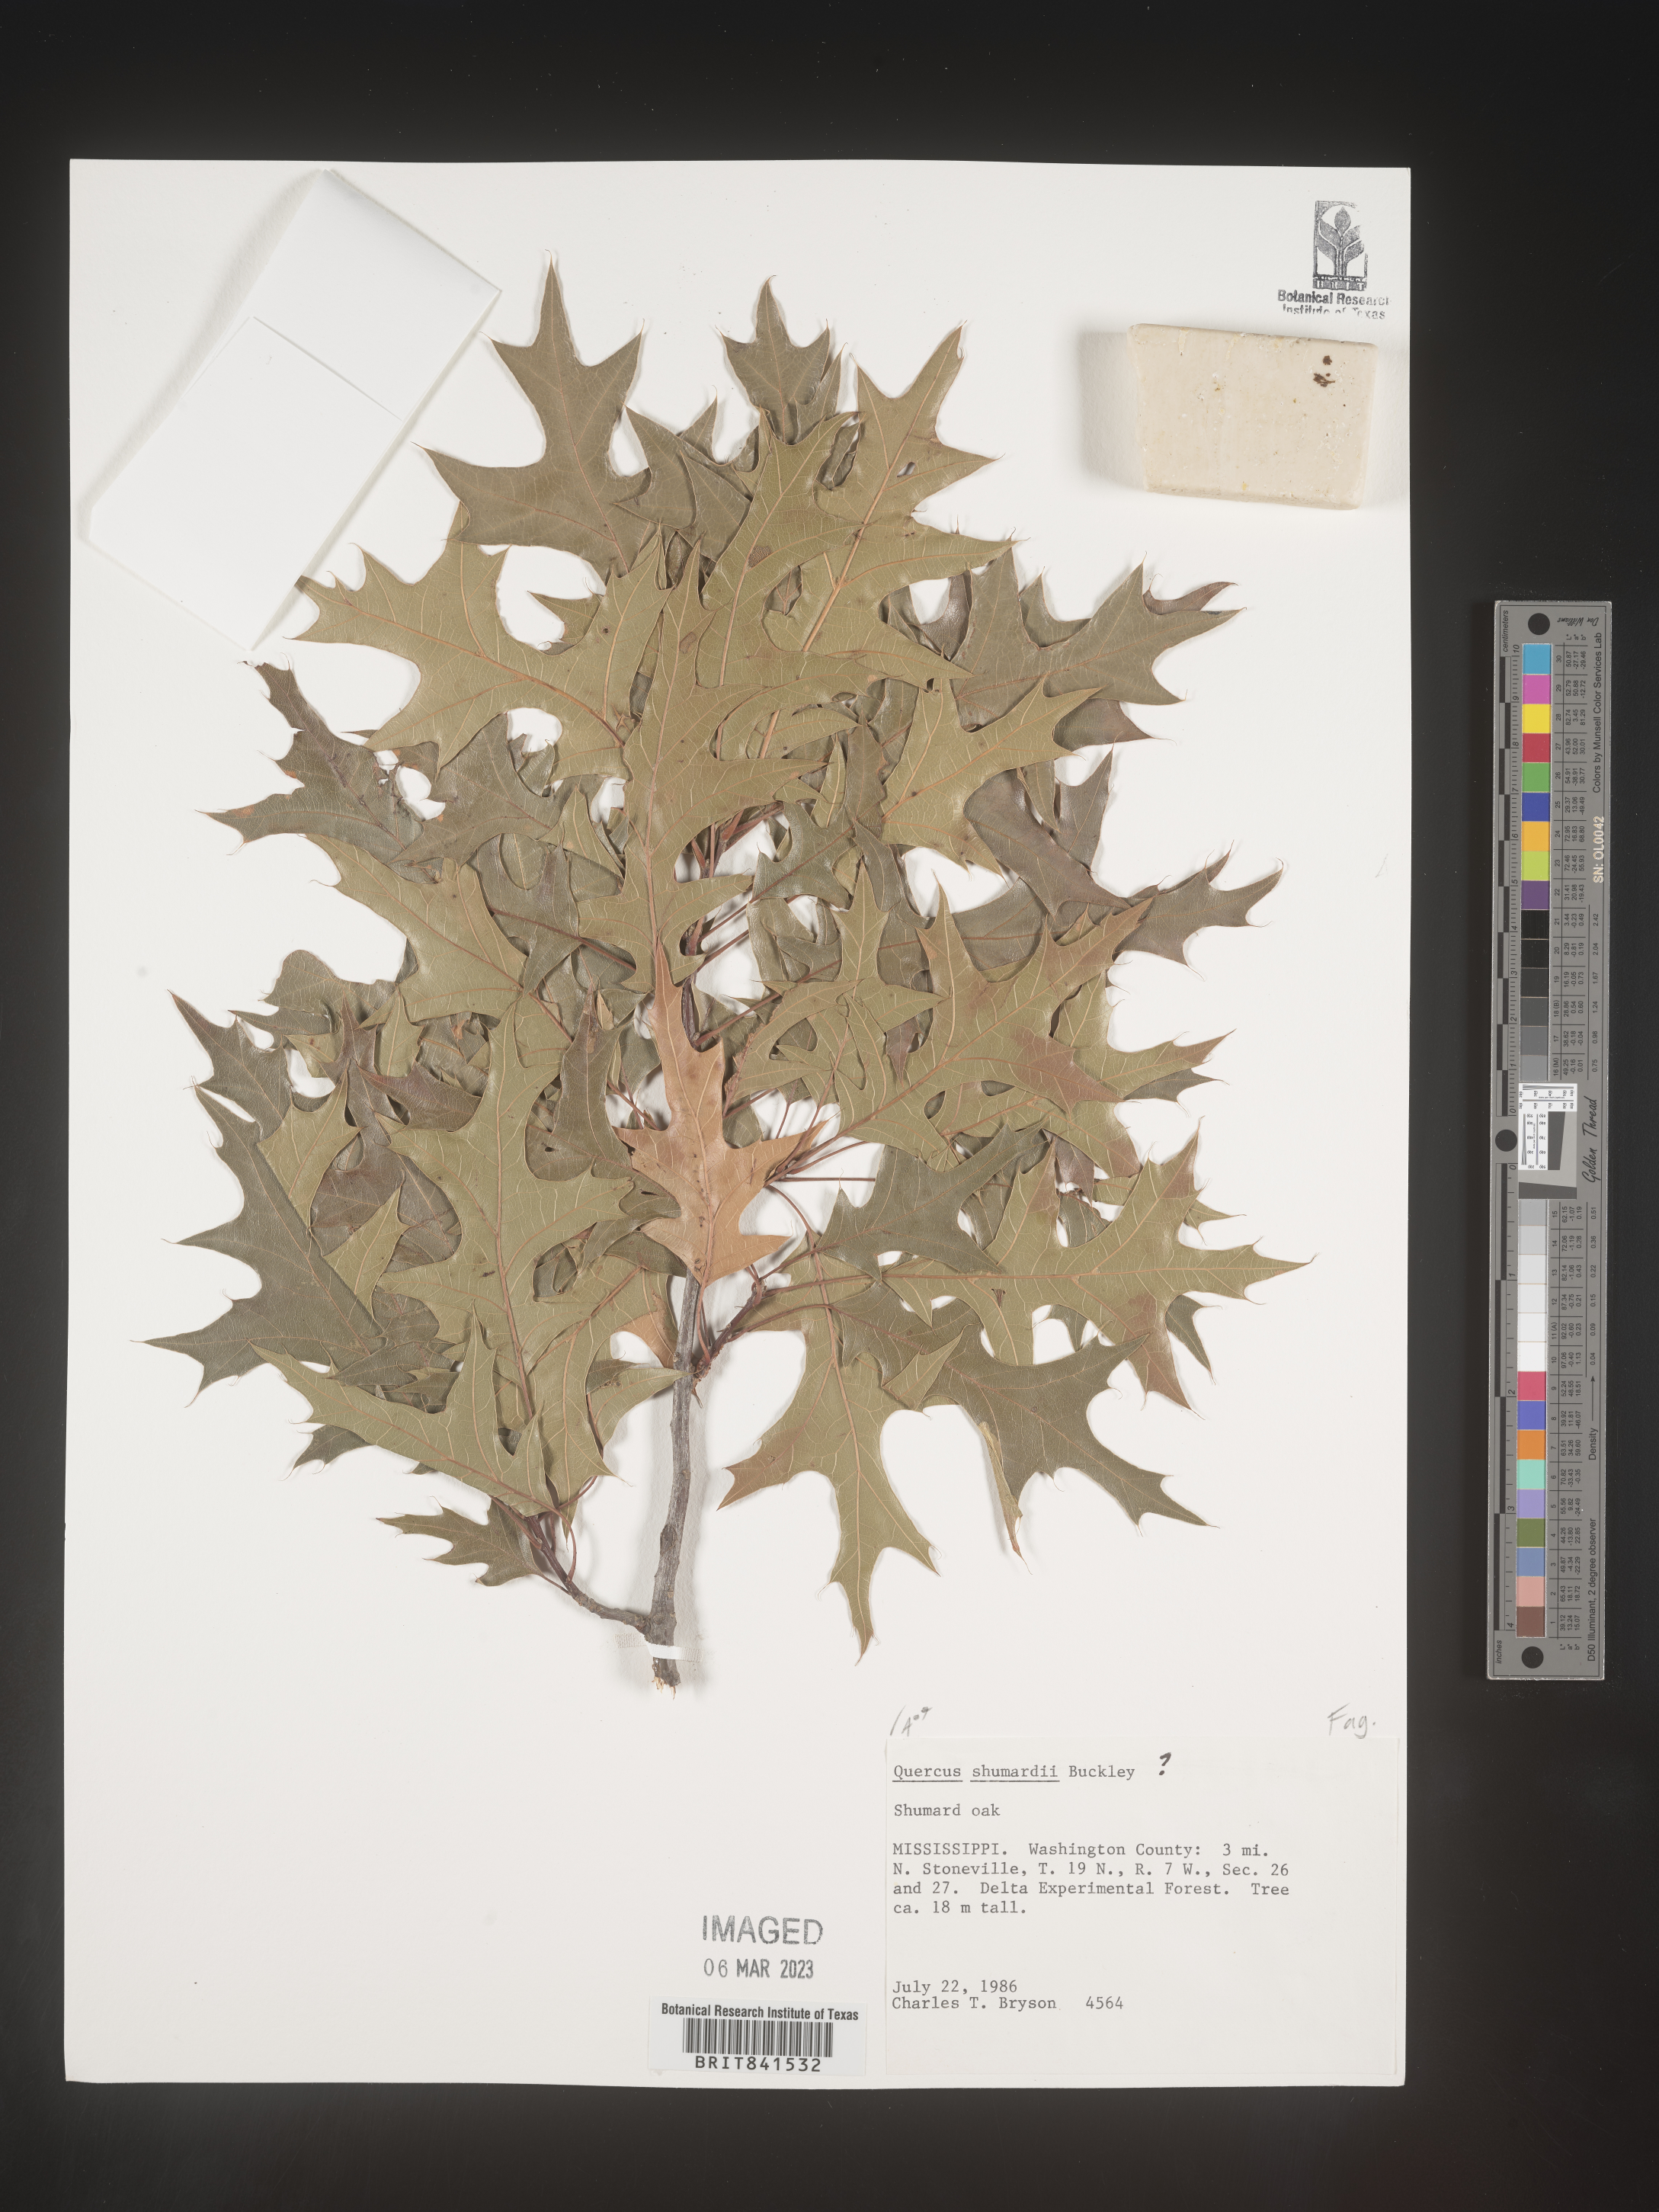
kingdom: Plantae
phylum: Tracheophyta
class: Magnoliopsida
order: Fagales
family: Fagaceae
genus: Quercus
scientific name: Quercus shumardii
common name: Shumard oak
